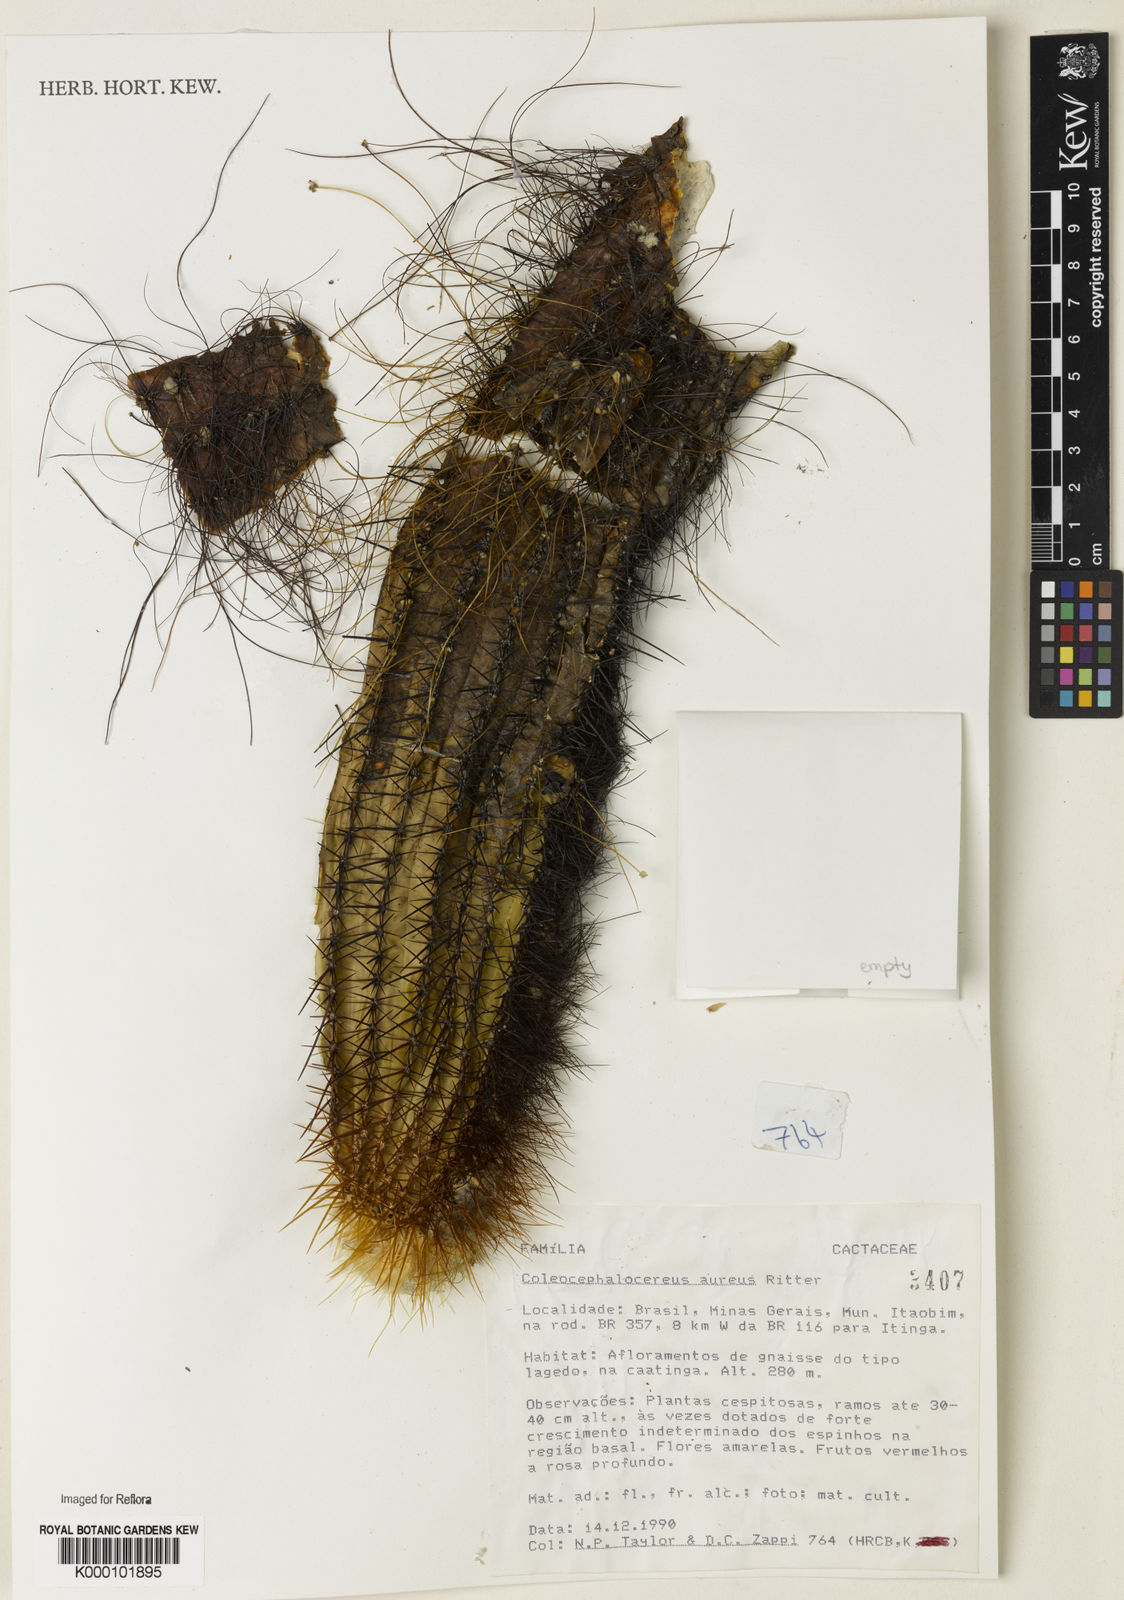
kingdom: Plantae
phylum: Tracheophyta
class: Magnoliopsida
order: Caryophyllales
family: Cactaceae
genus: Coleocephalocereus
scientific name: Coleocephalocereus aureus
